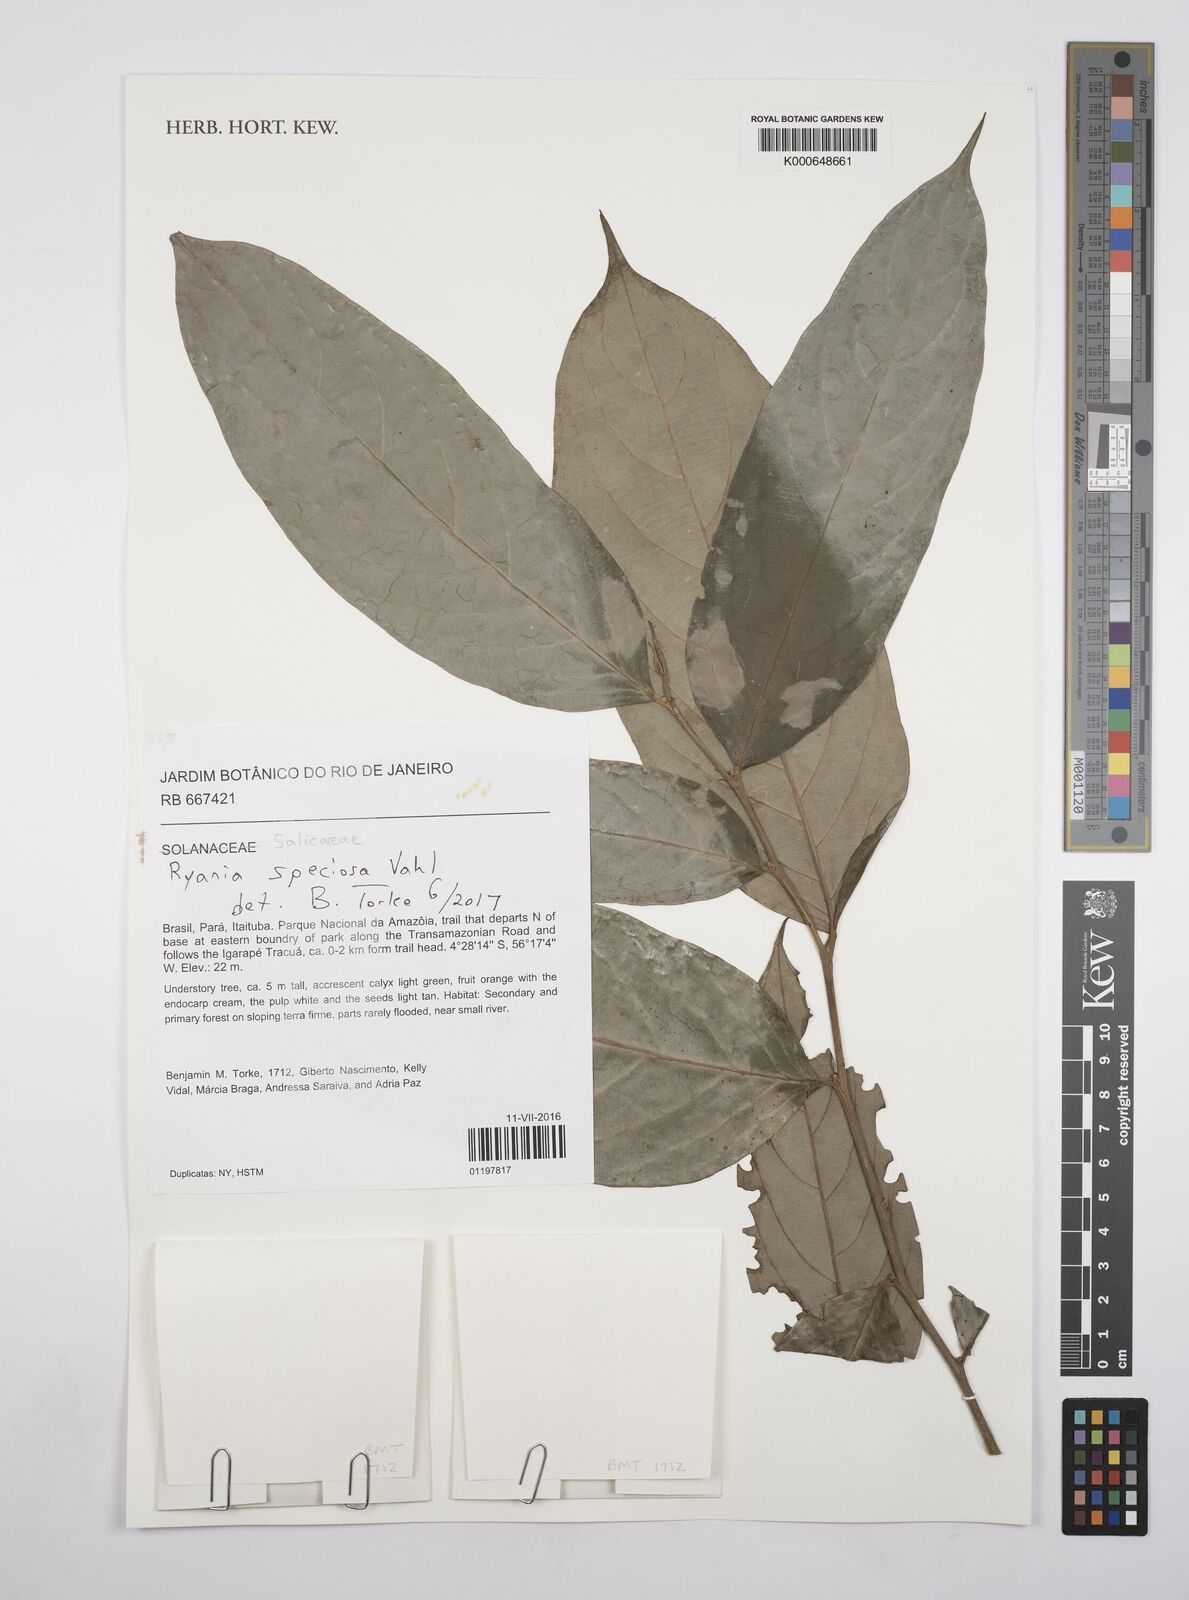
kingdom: Plantae
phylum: Tracheophyta
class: Magnoliopsida
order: Malpighiales
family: Salicaceae
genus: Ryania
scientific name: Ryania speciosa
